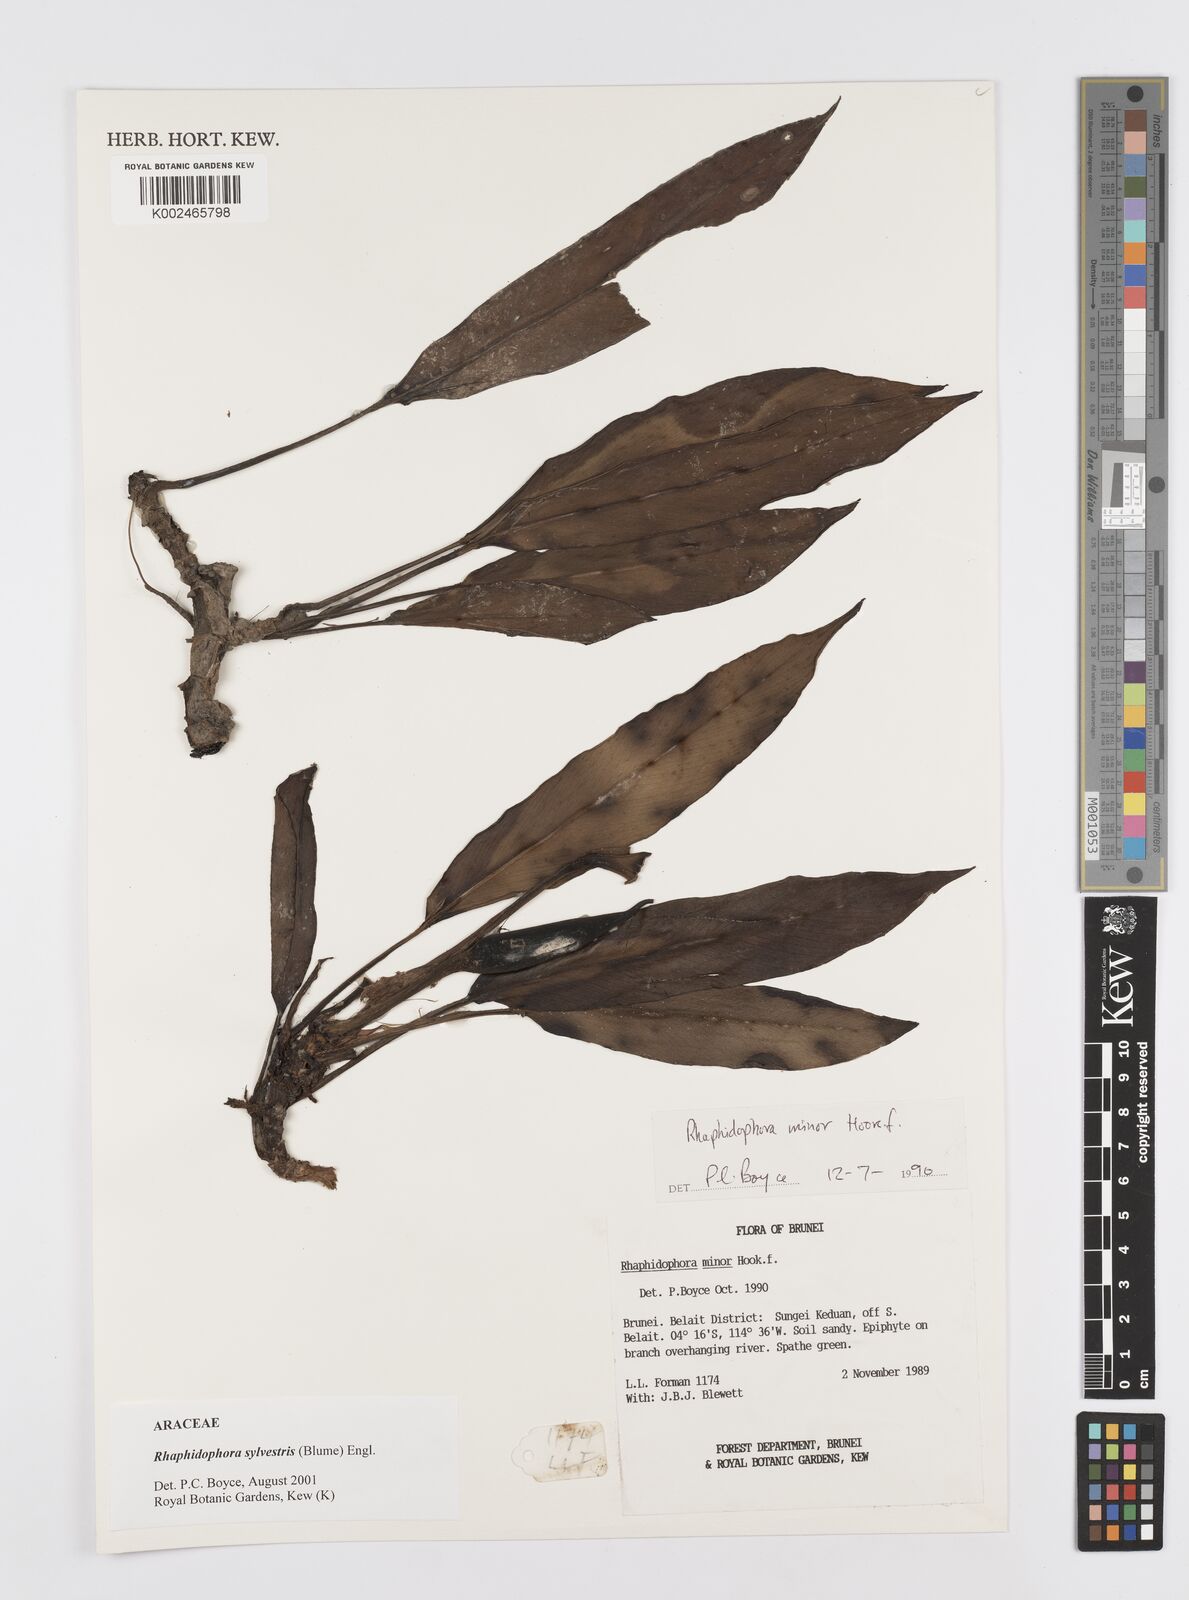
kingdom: Plantae
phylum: Tracheophyta
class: Liliopsida
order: Alismatales
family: Araceae
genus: Rhaphidophora
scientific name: Rhaphidophora sylvestris
